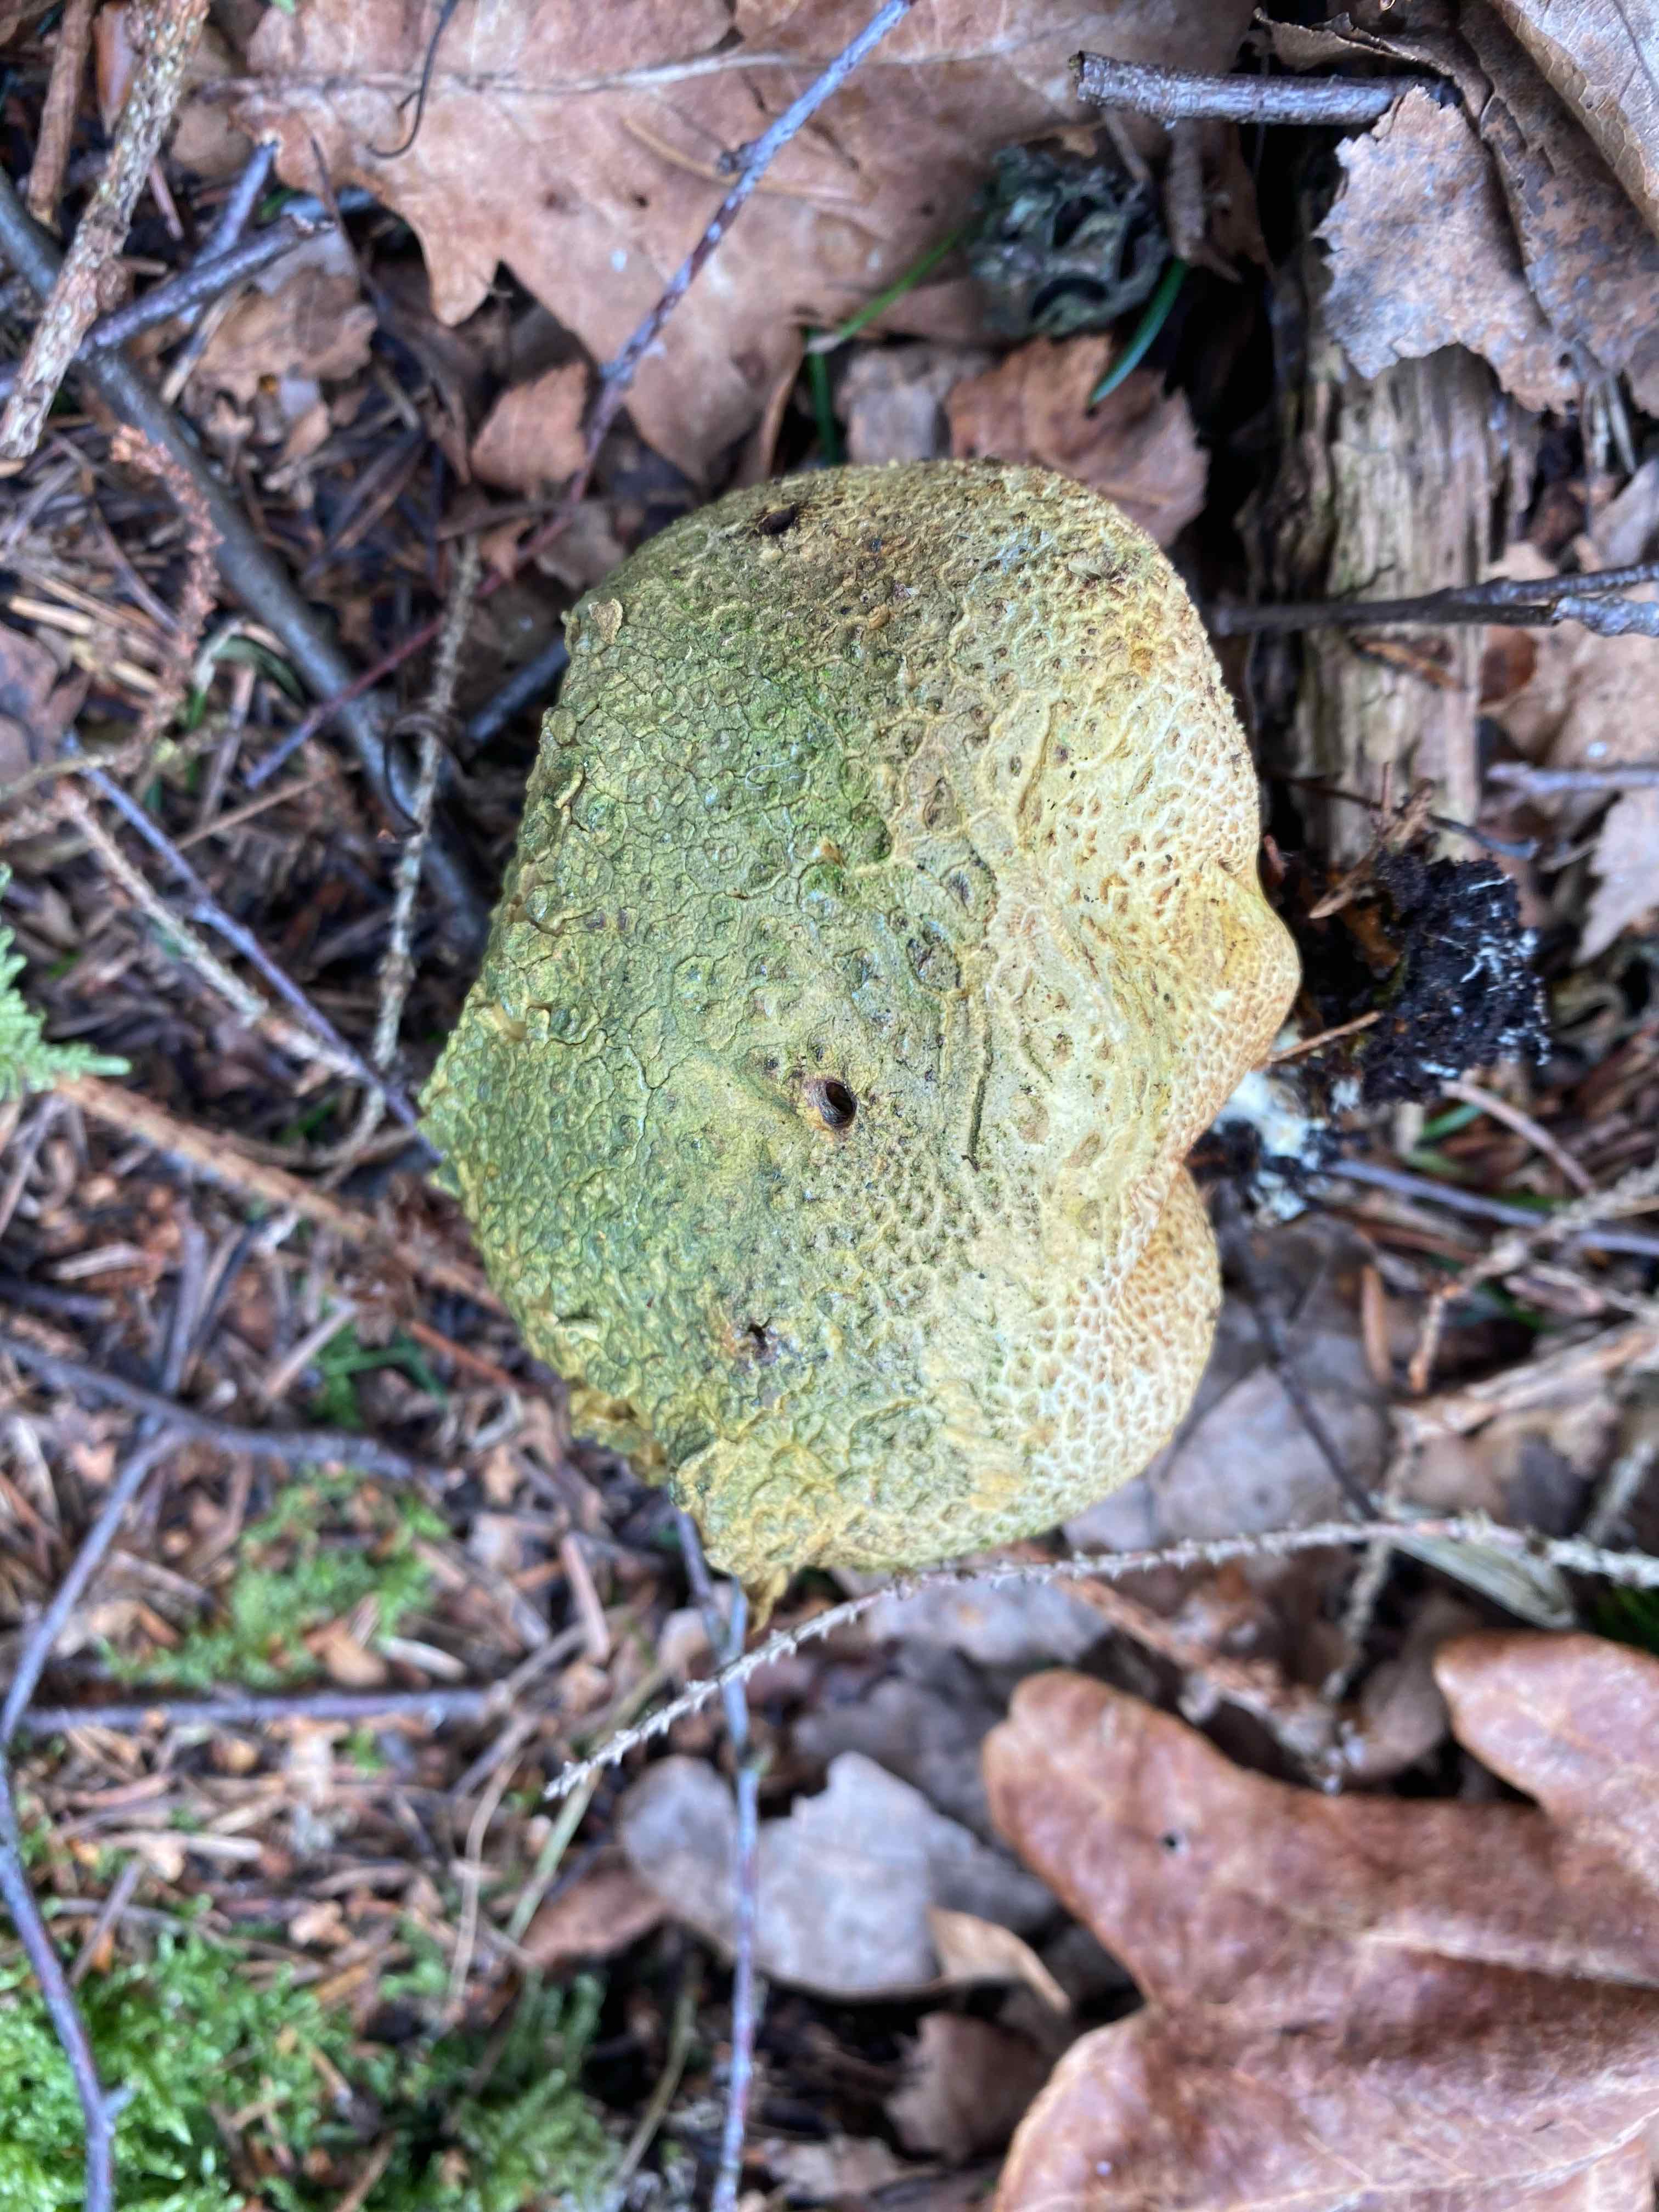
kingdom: Fungi
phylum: Basidiomycota
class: Agaricomycetes
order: Boletales
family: Sclerodermataceae
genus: Scleroderma
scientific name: Scleroderma citrinum
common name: almindelig bruskbold
